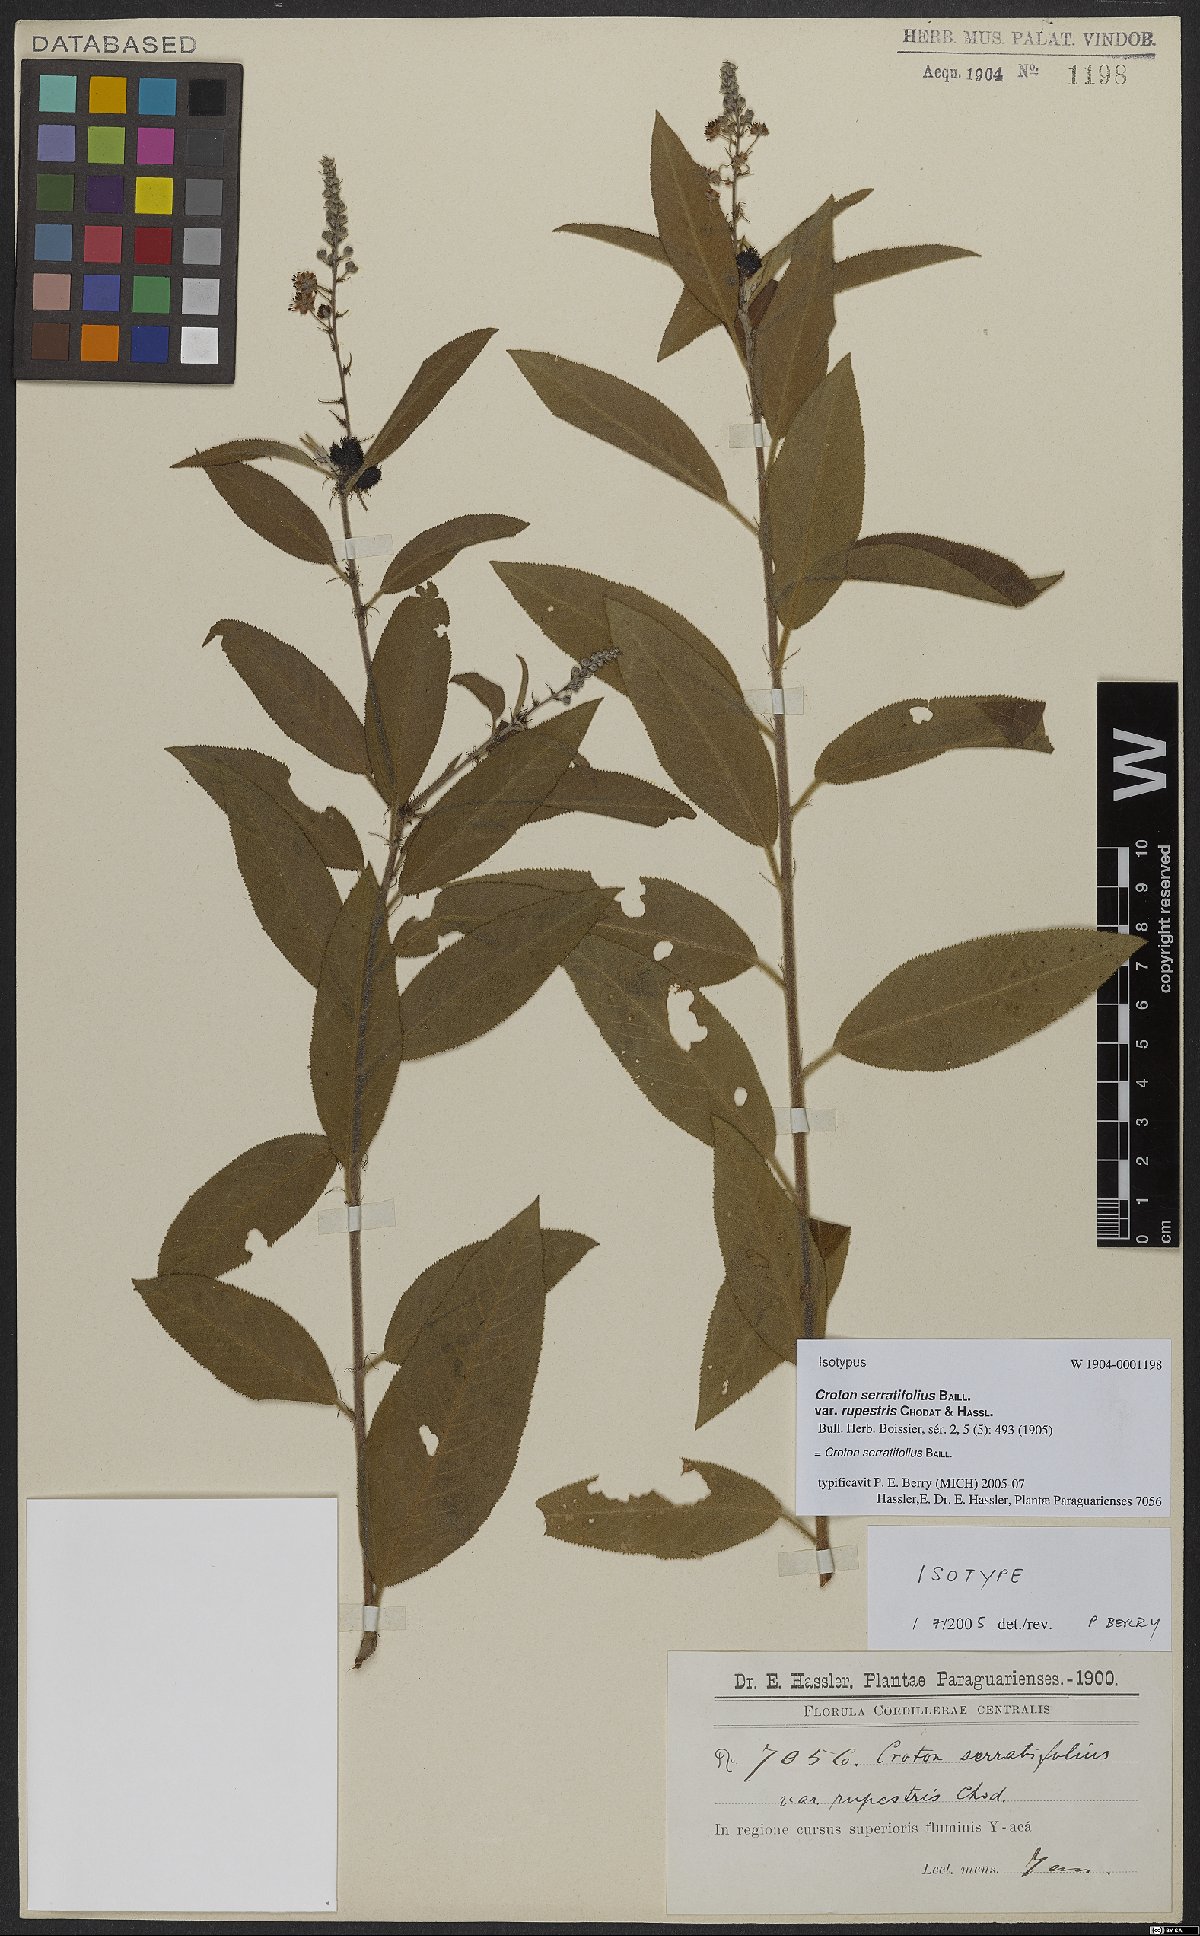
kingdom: Plantae
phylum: Tracheophyta
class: Magnoliopsida
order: Malpighiales
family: Euphorbiaceae
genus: Croton
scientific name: Croton serratifolius
